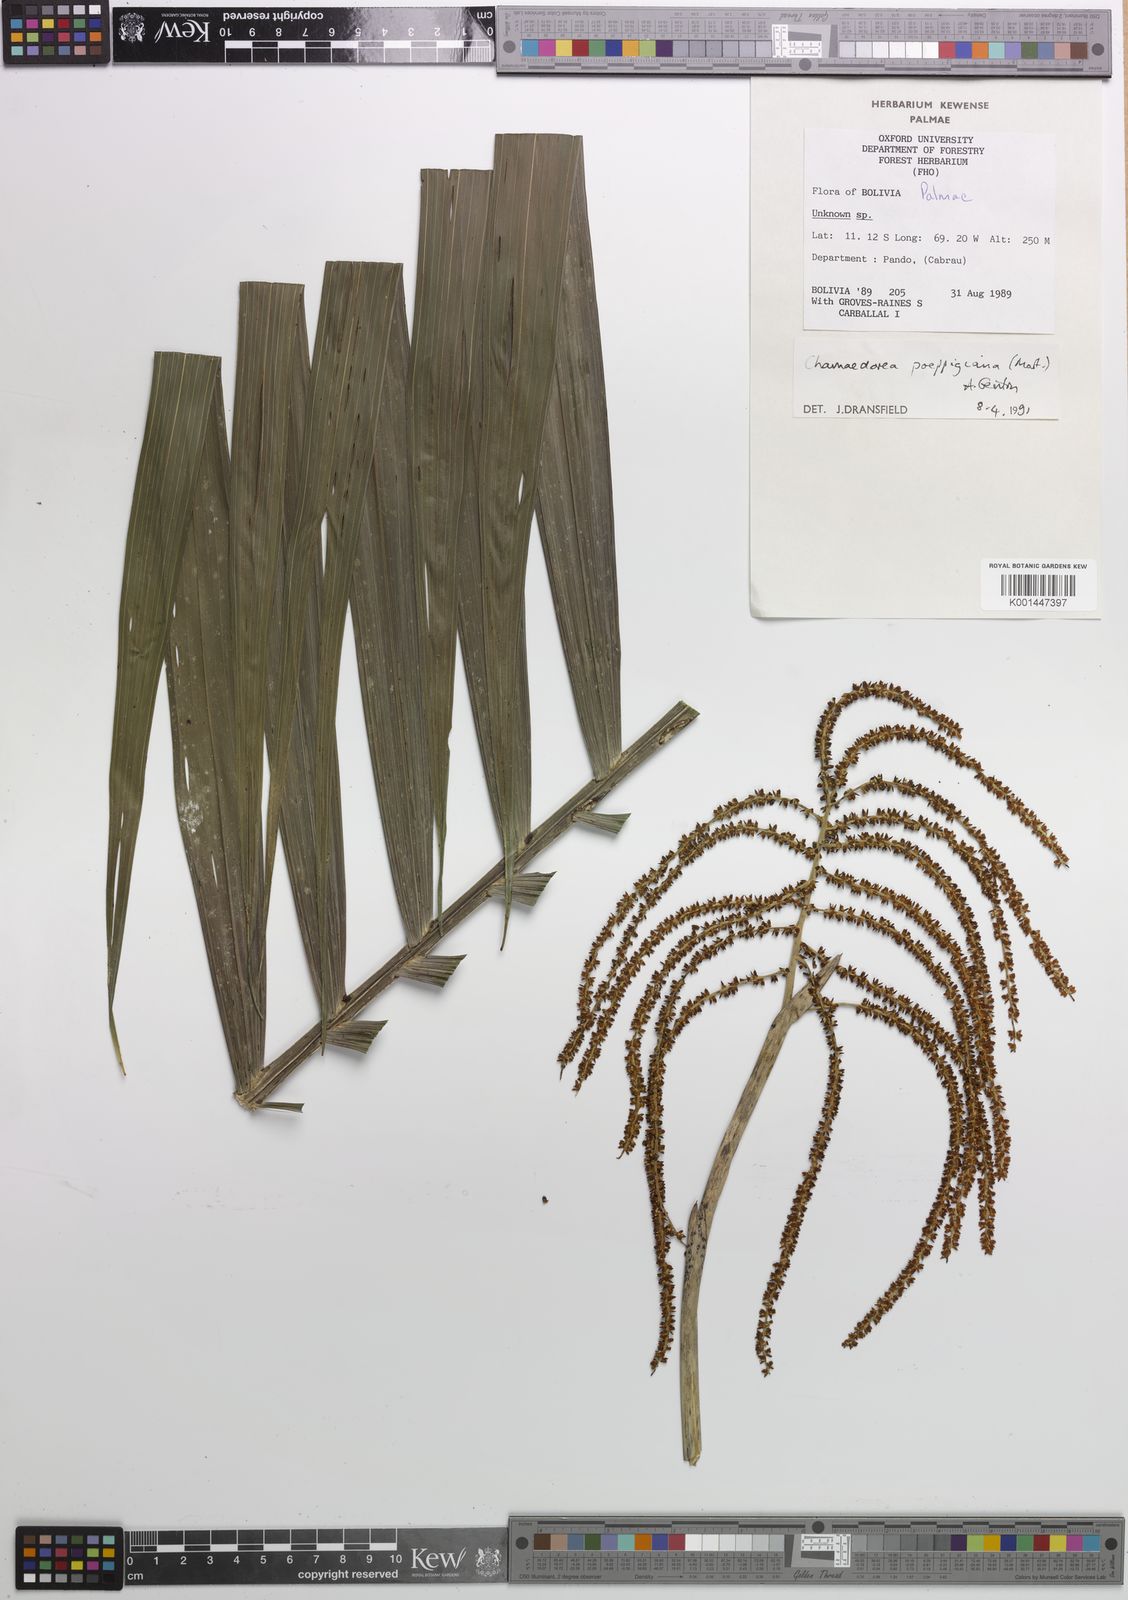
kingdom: Plantae
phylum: Tracheophyta
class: Liliopsida
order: Arecales
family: Arecaceae
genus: Chamaedorea
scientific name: Chamaedorea linearis
